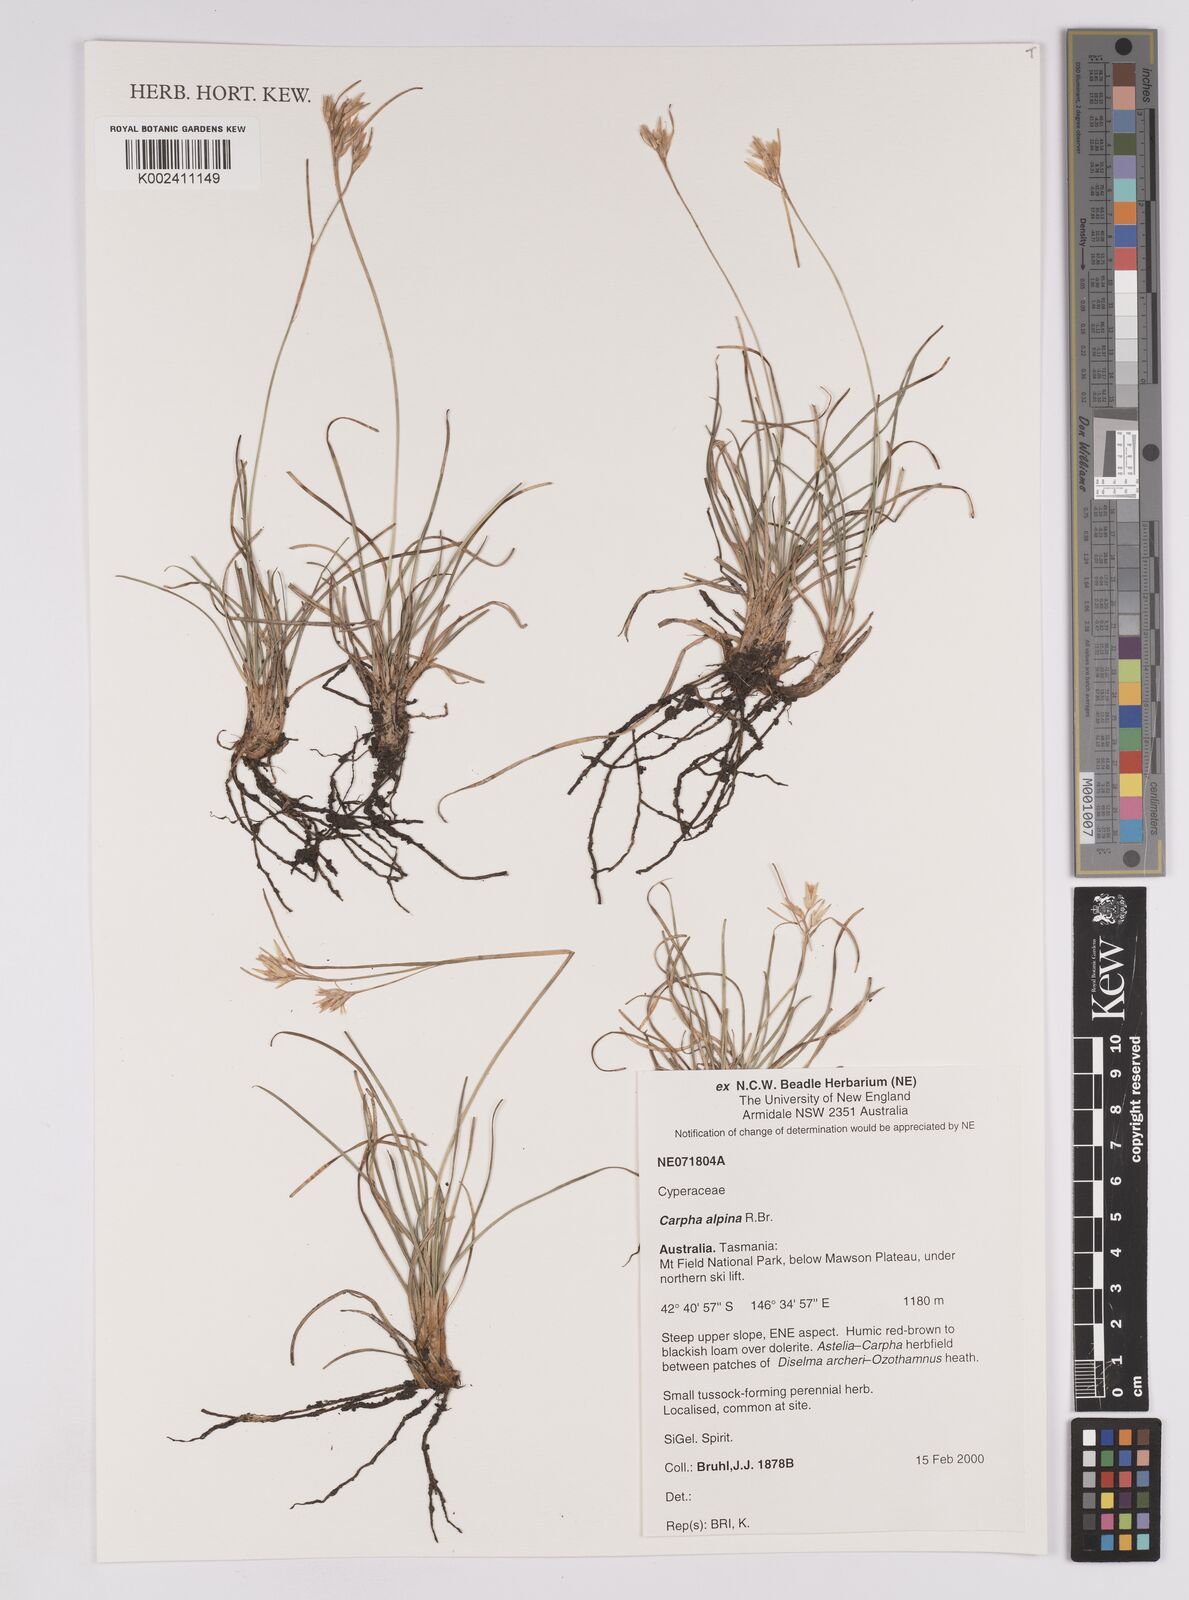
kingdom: Plantae
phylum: Tracheophyta
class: Liliopsida
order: Poales
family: Cyperaceae
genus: Carpha
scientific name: Carpha alpina
